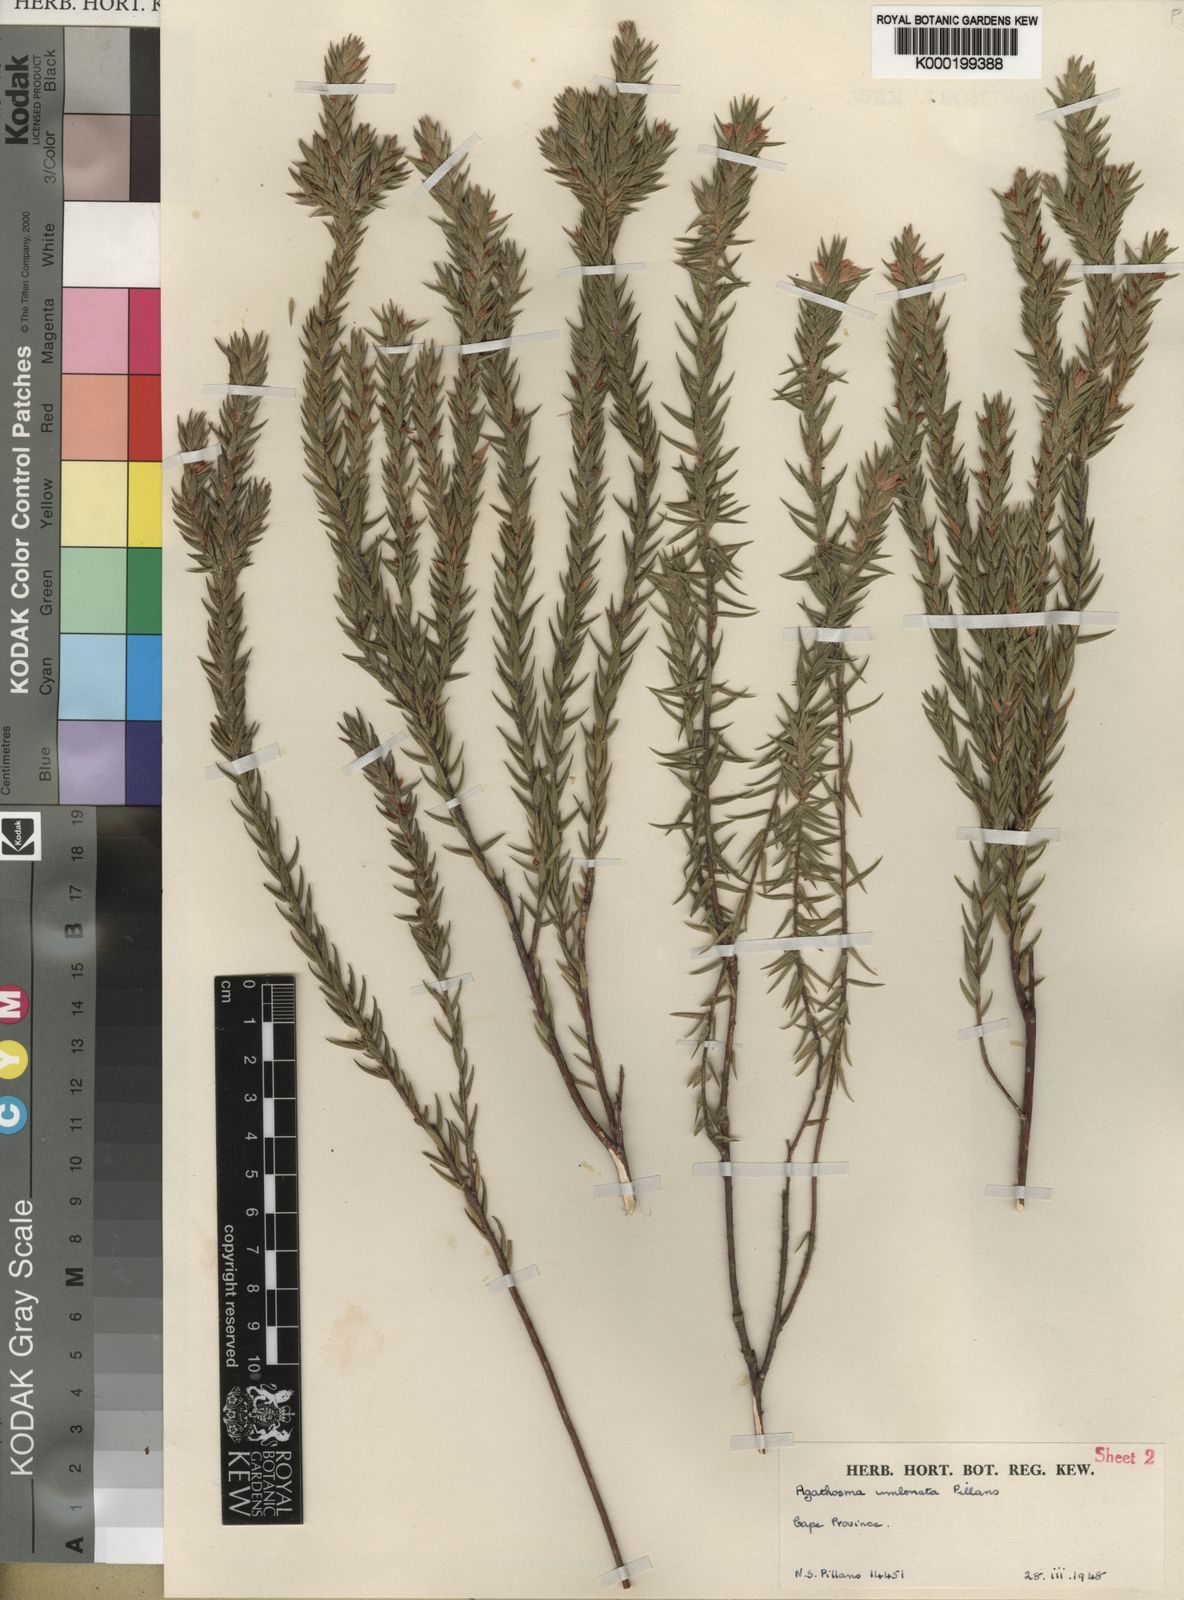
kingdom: Plantae
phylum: Tracheophyta
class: Magnoliopsida
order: Sapindales
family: Rutaceae
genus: Agathosma
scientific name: Agathosma umbonata
